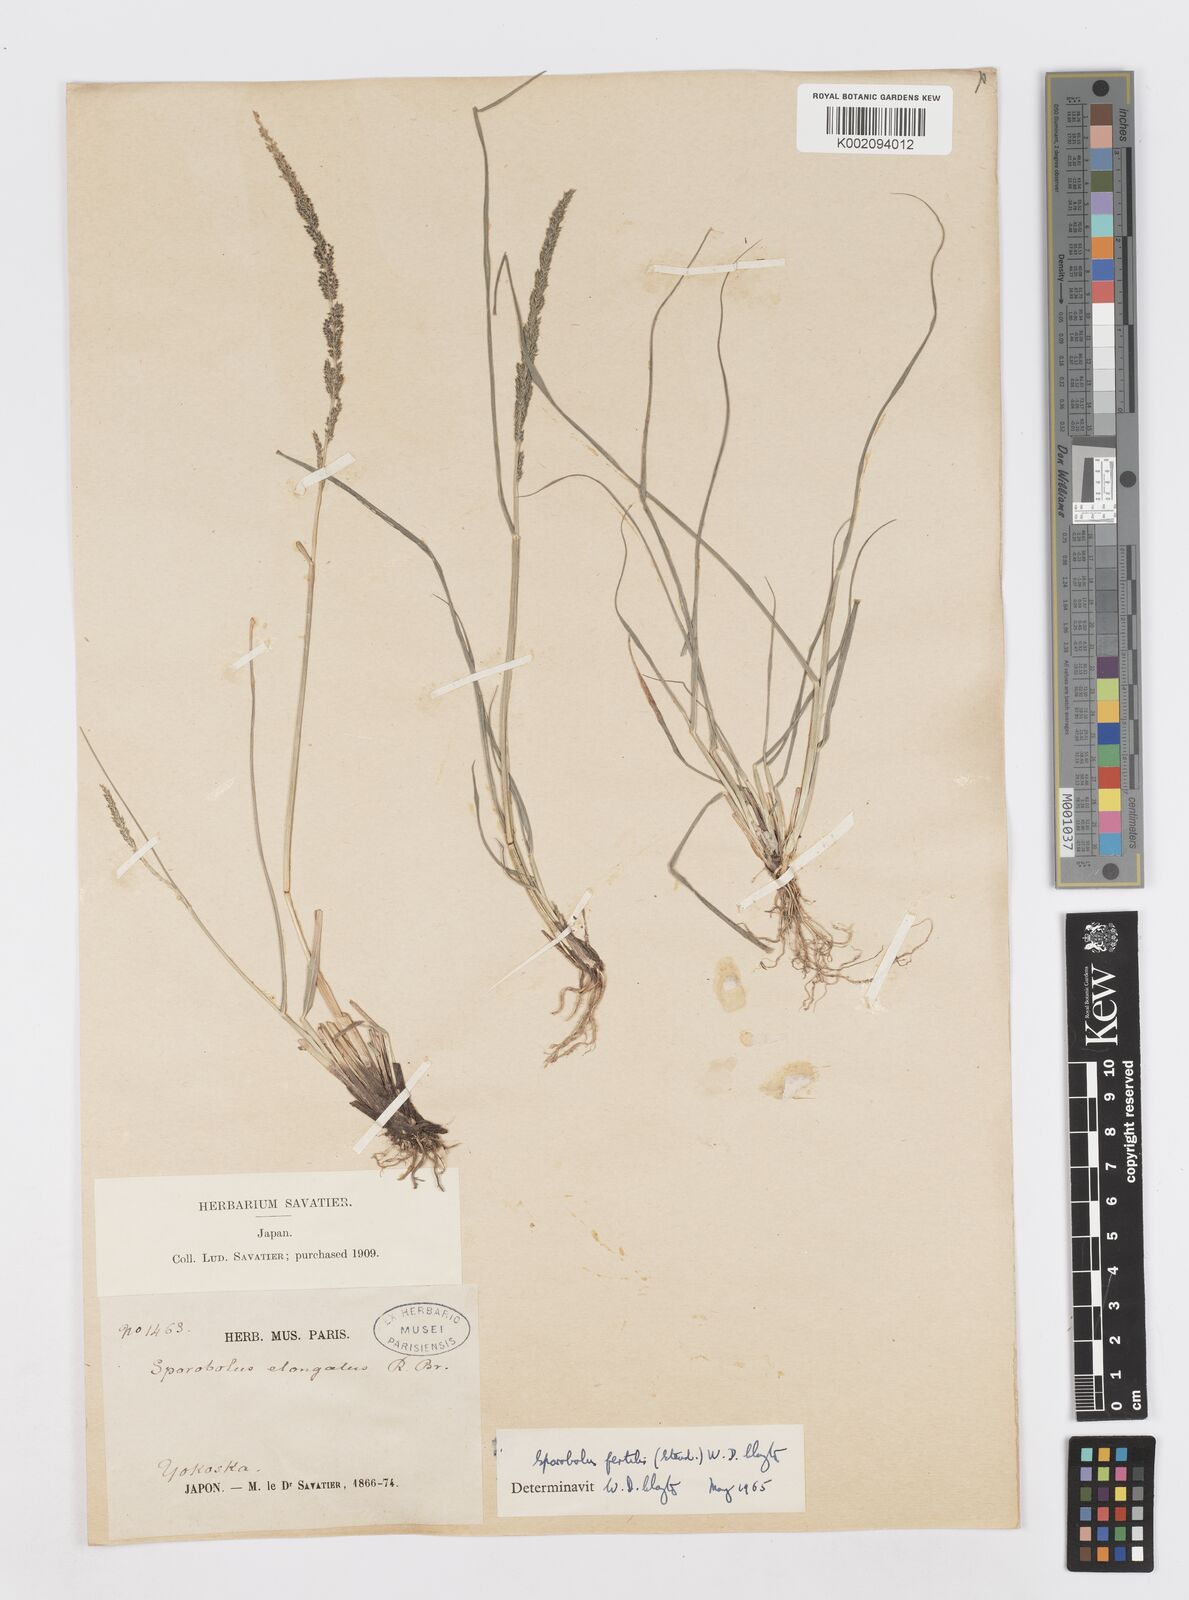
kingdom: Plantae
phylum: Tracheophyta
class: Liliopsida
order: Poales
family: Poaceae
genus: Sporobolus
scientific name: Sporobolus fertilis
